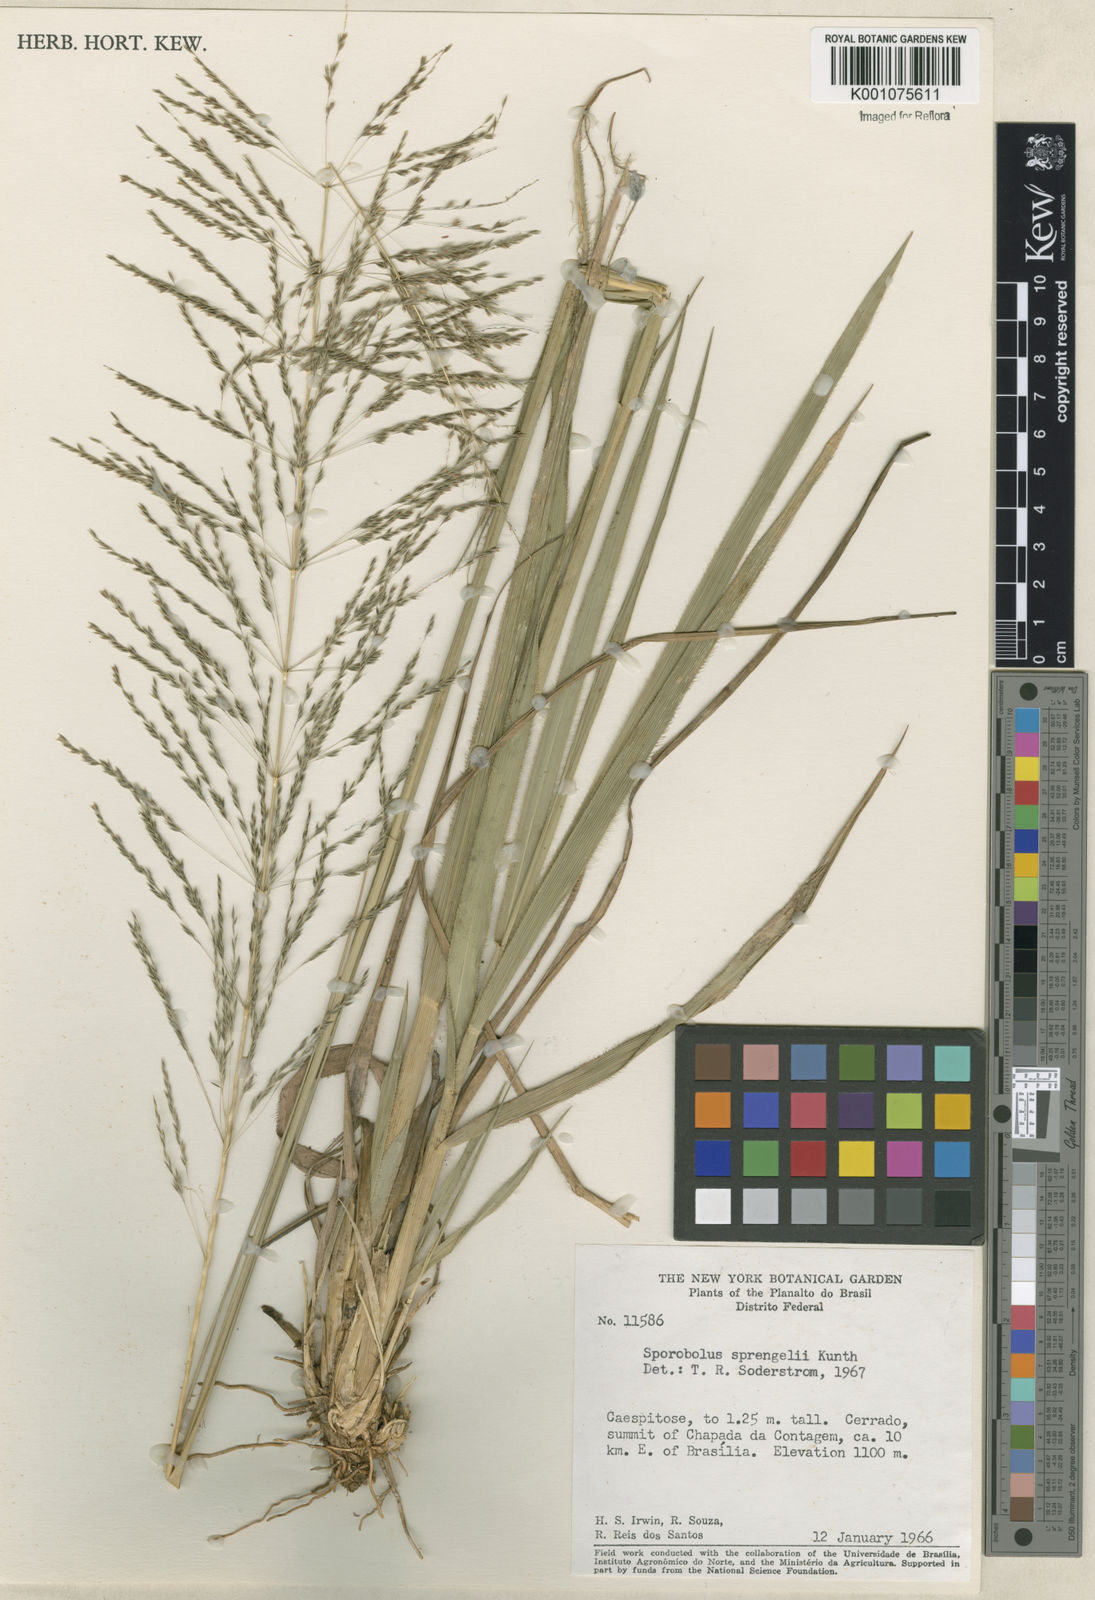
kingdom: Plantae
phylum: Tracheophyta
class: Liliopsida
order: Poales
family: Poaceae
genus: Sporobolus
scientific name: Sporobolus
